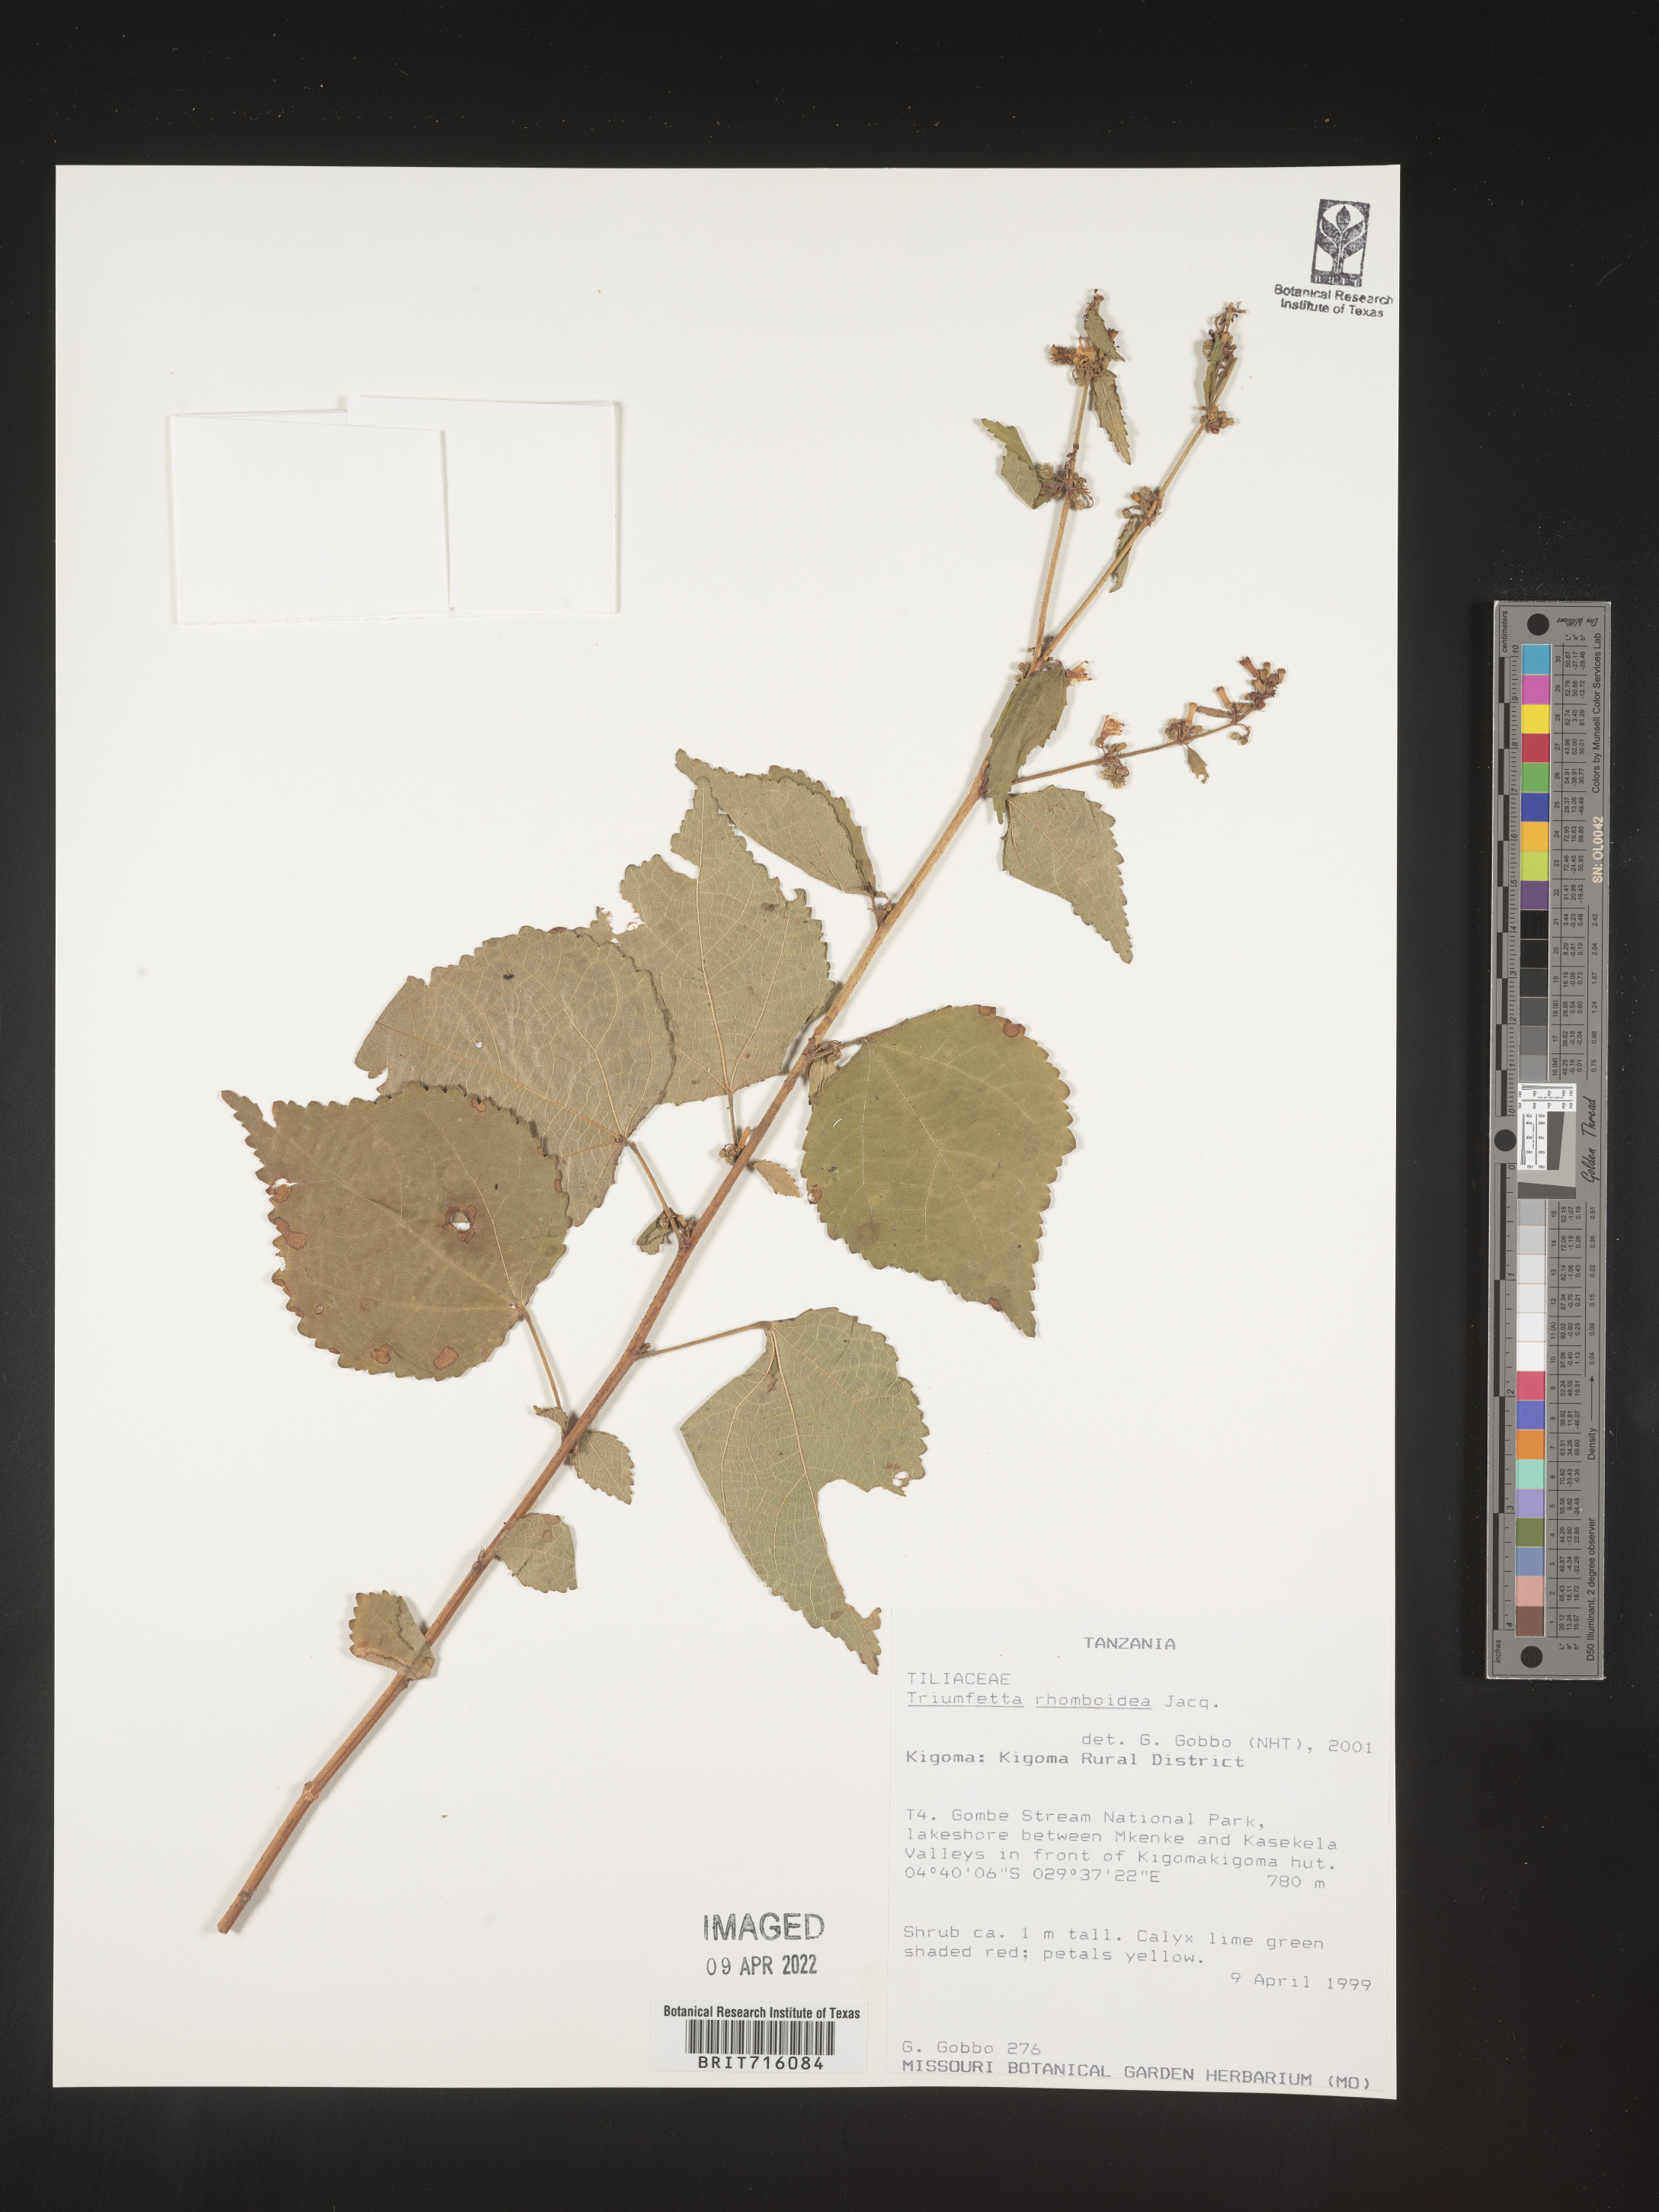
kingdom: Plantae
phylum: Tracheophyta
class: Magnoliopsida
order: Malvales
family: Malvaceae
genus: Triumfetta
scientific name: Triumfetta rhomboidea
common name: Diamond burbark
